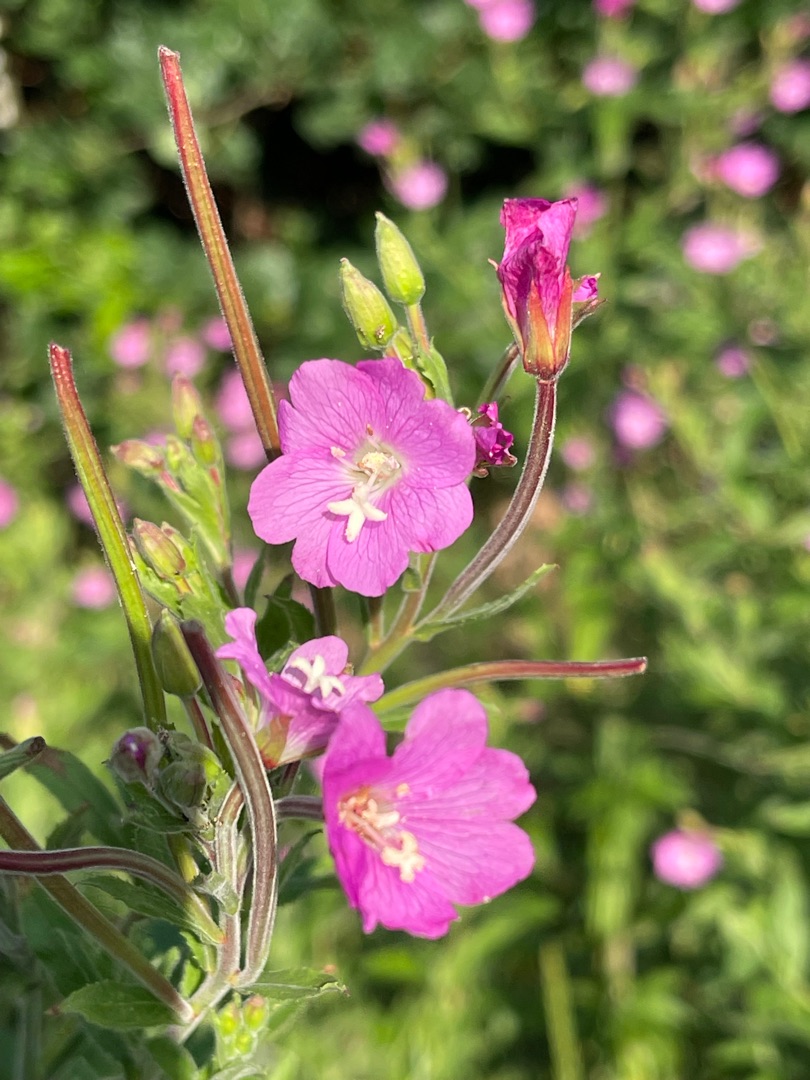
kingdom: Plantae
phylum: Tracheophyta
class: Magnoliopsida
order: Myrtales
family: Onagraceae
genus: Epilobium
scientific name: Epilobium hirsutum
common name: Lådden dueurt
